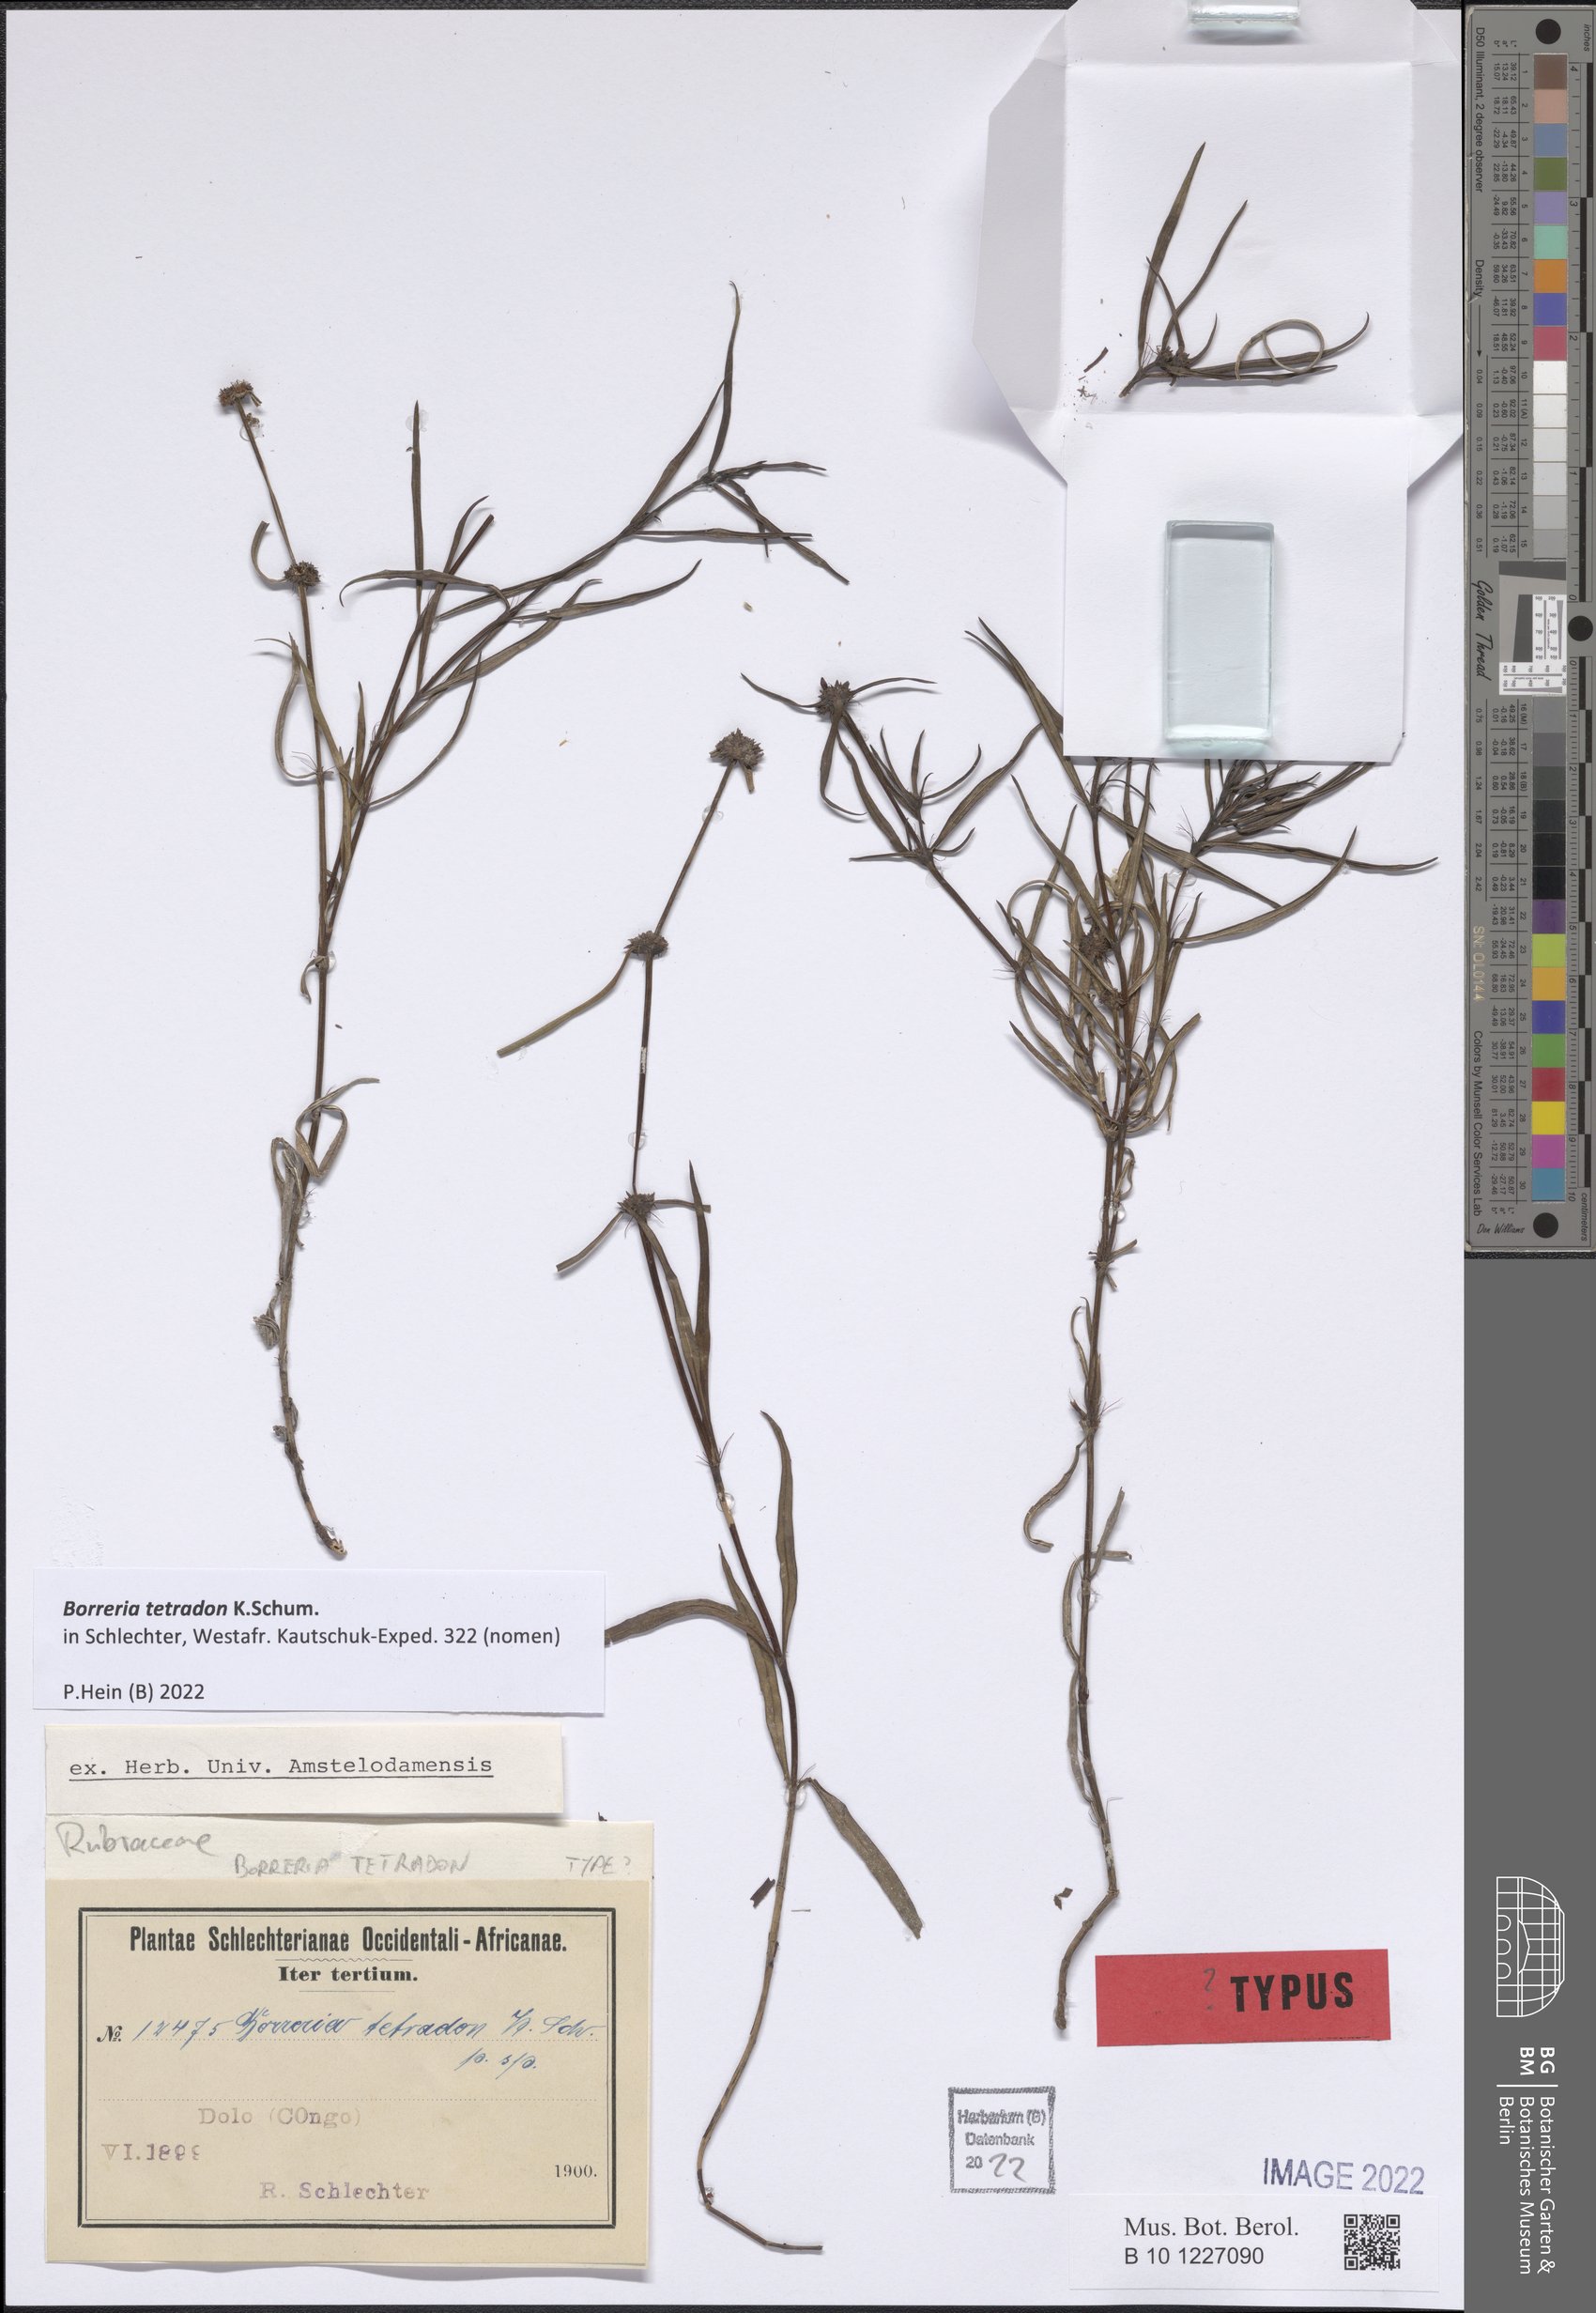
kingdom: Plantae
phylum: Tracheophyta
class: Magnoliopsida
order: Gentianales
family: Rubiaceae
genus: Spermacoce
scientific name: Spermacoce
